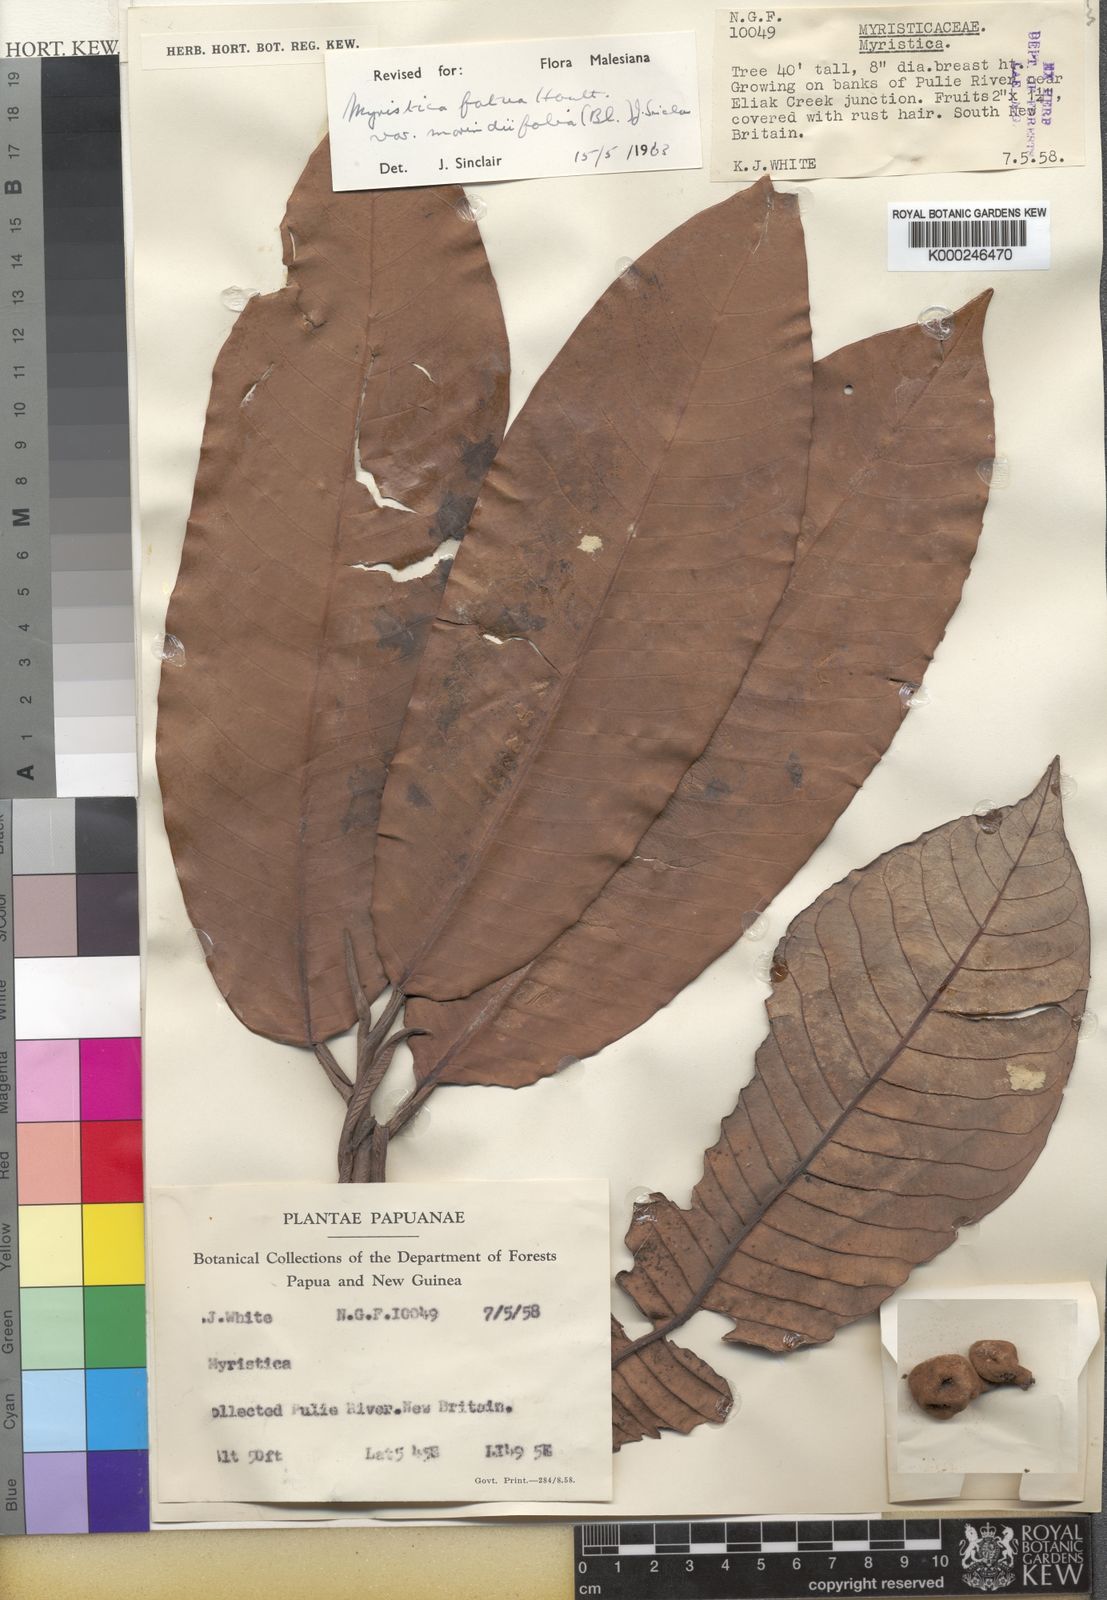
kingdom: Plantae
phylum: Tracheophyta
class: Magnoliopsida
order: Magnoliales
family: Myristicaceae
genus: Myristica
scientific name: Myristica fatua
